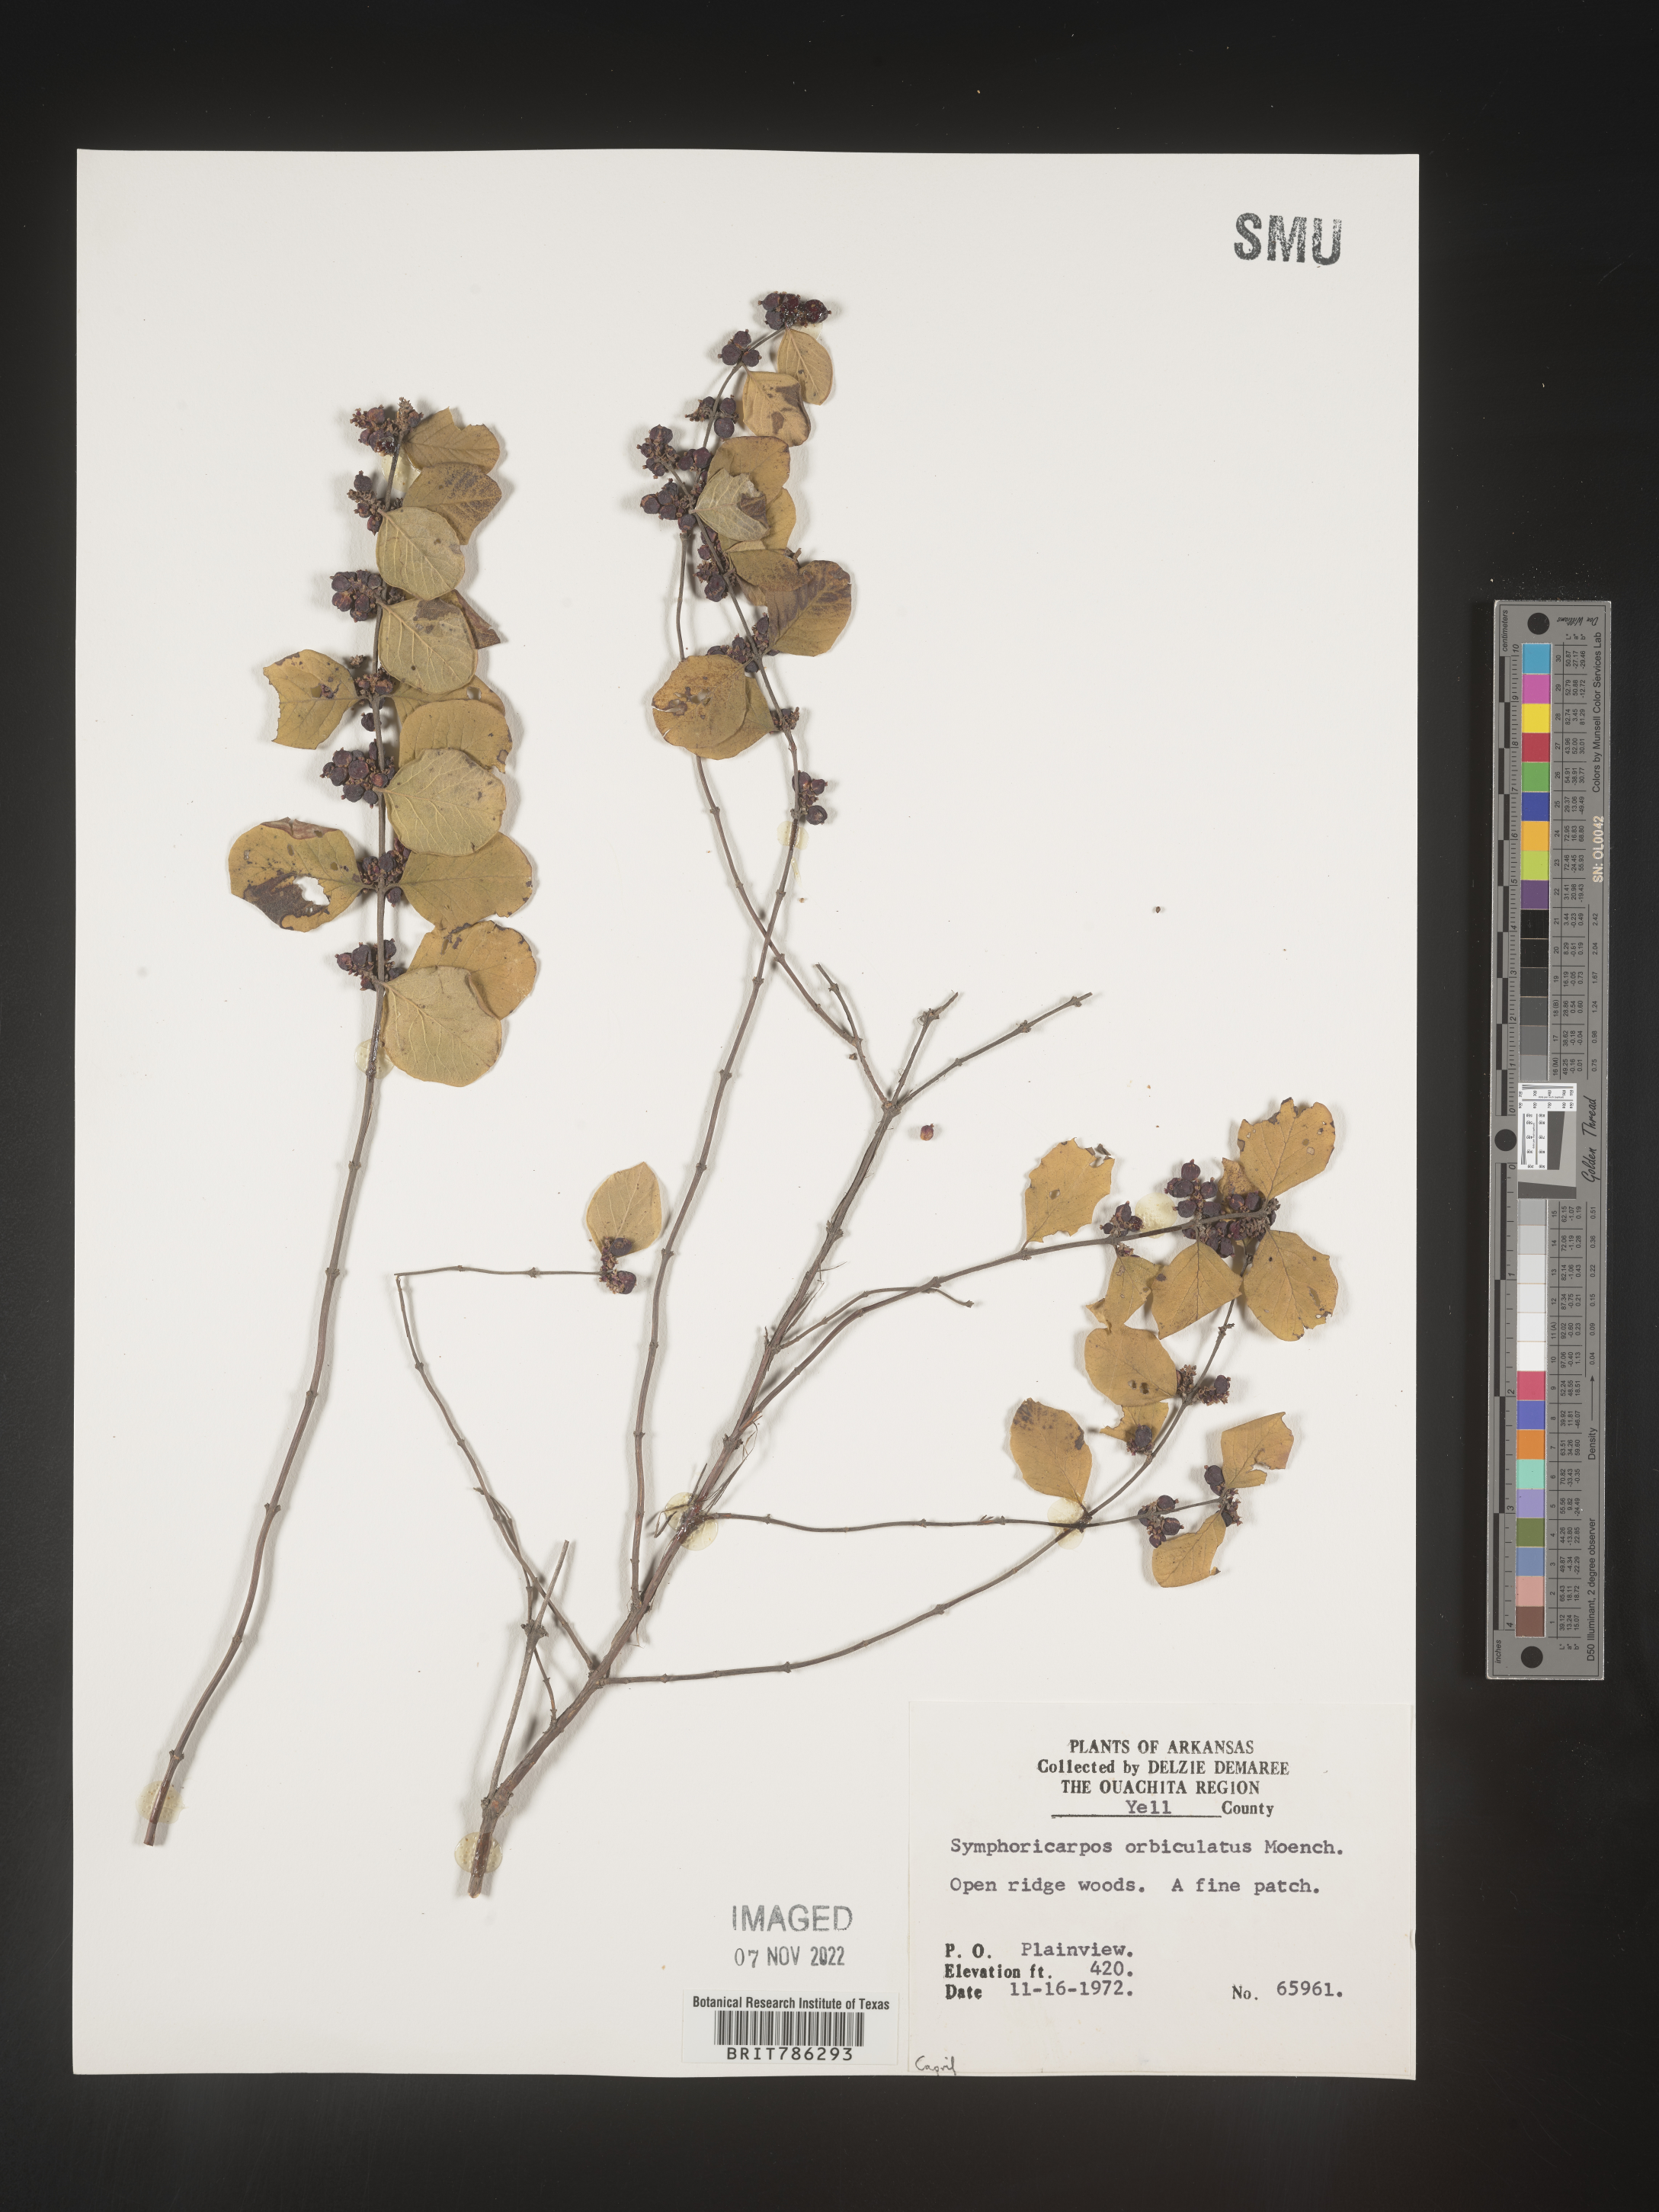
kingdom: Plantae
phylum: Tracheophyta
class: Magnoliopsida
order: Dipsacales
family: Caprifoliaceae
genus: Symphoricarpos
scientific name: Symphoricarpos orbiculatus
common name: Coralberry
